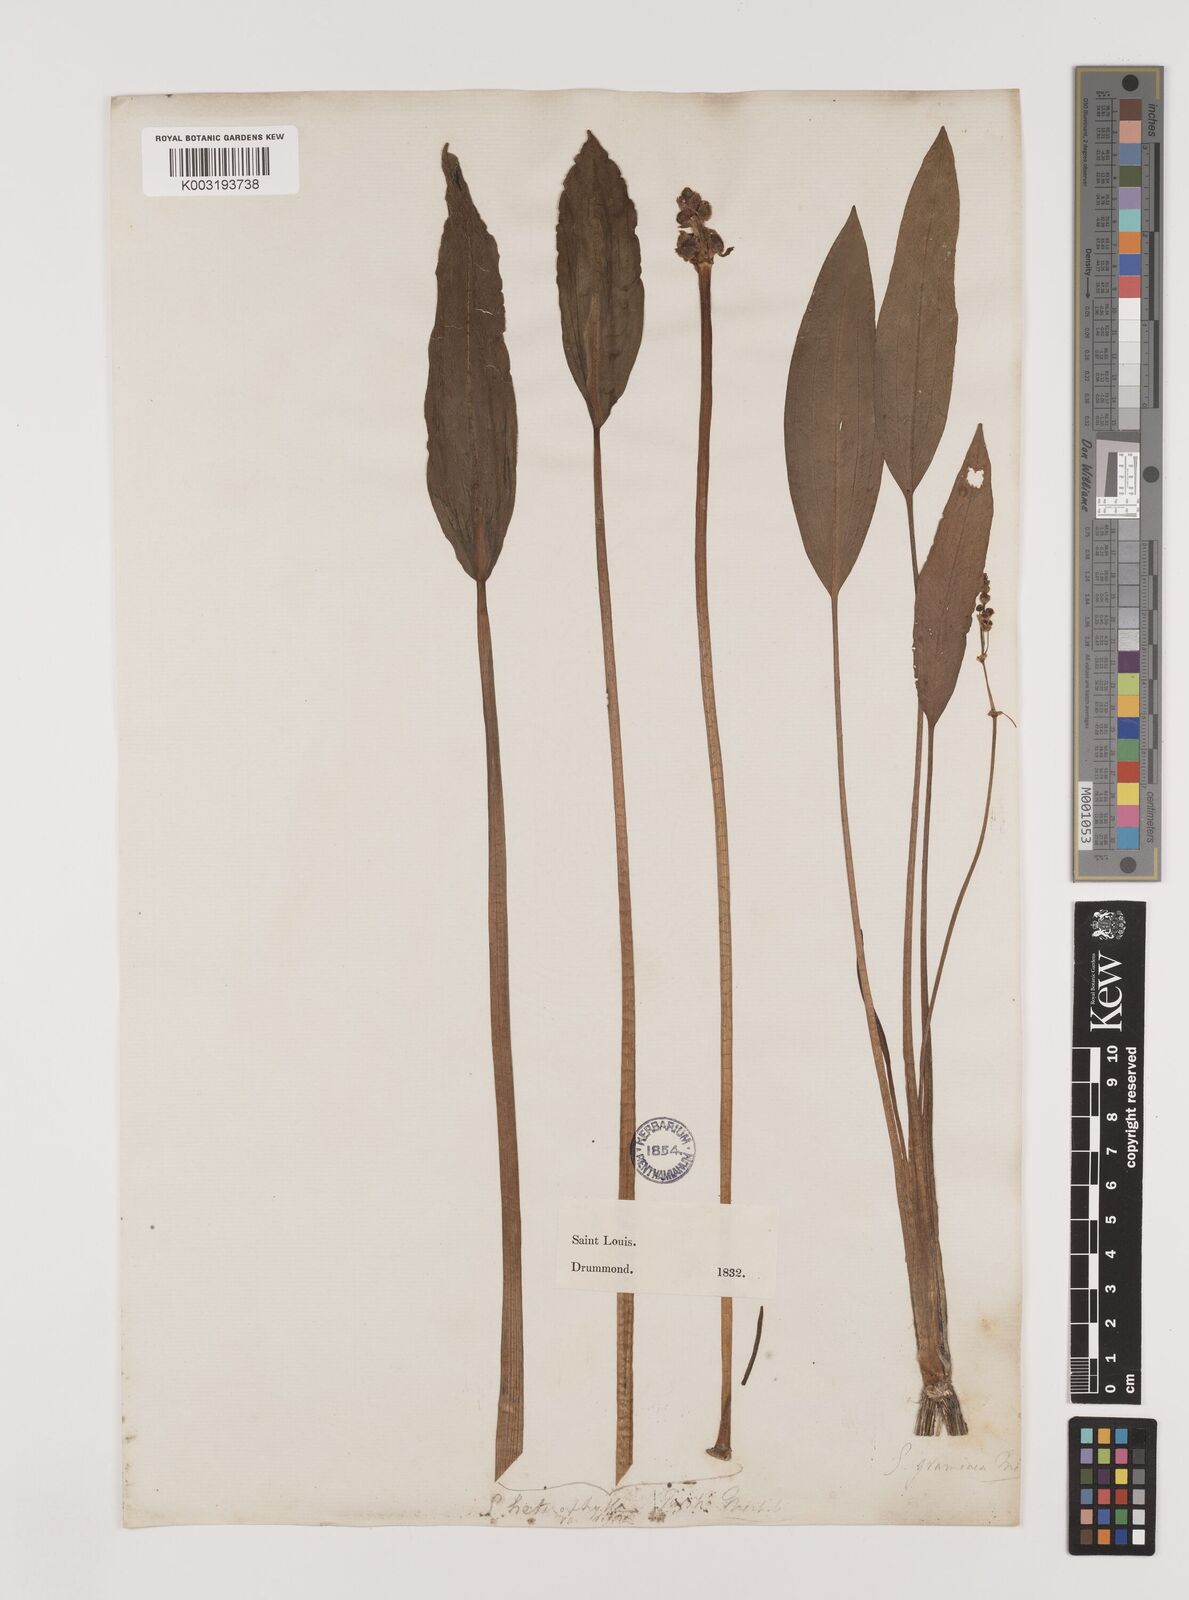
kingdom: Plantae
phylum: Tracheophyta
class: Liliopsida
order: Alismatales
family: Alismataceae
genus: Sagittaria
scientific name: Sagittaria rigida
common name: Canadian arrowhead
